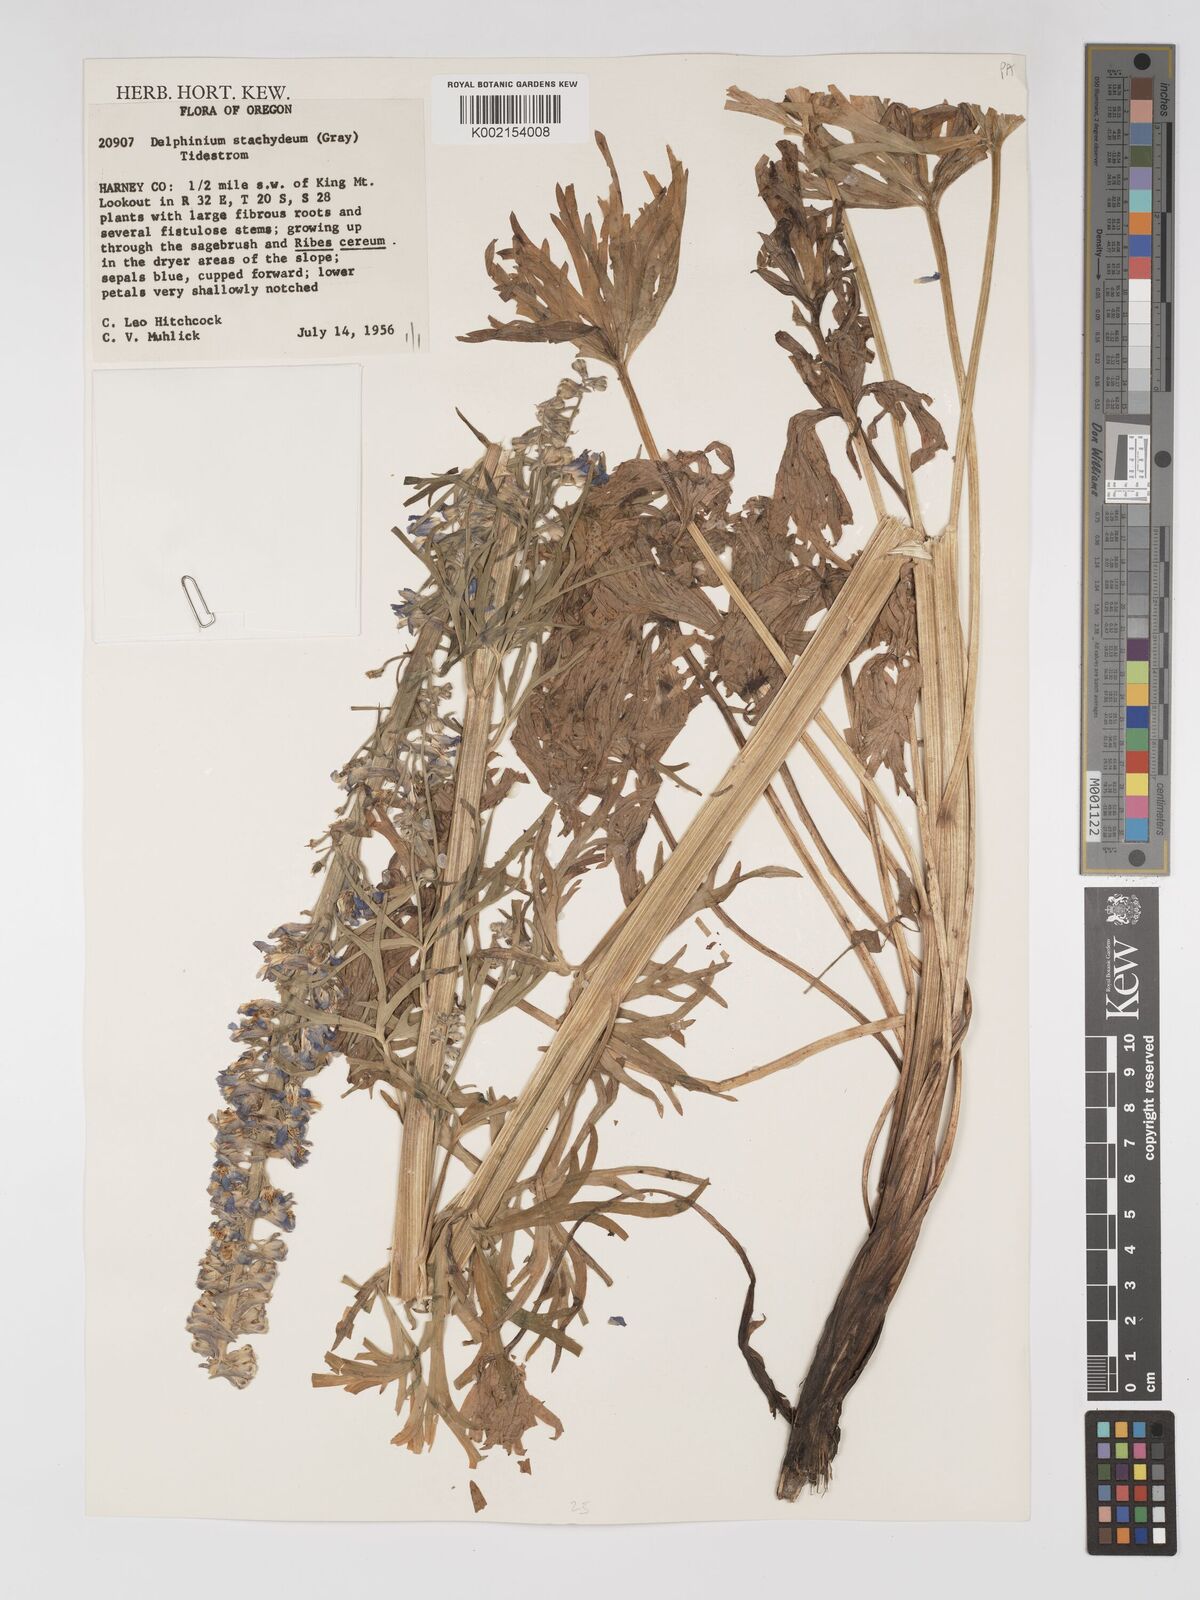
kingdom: Plantae
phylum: Tracheophyta
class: Magnoliopsida
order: Ranunculales
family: Ranunculaceae
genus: Delphinium
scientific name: Delphinium stachydeum
